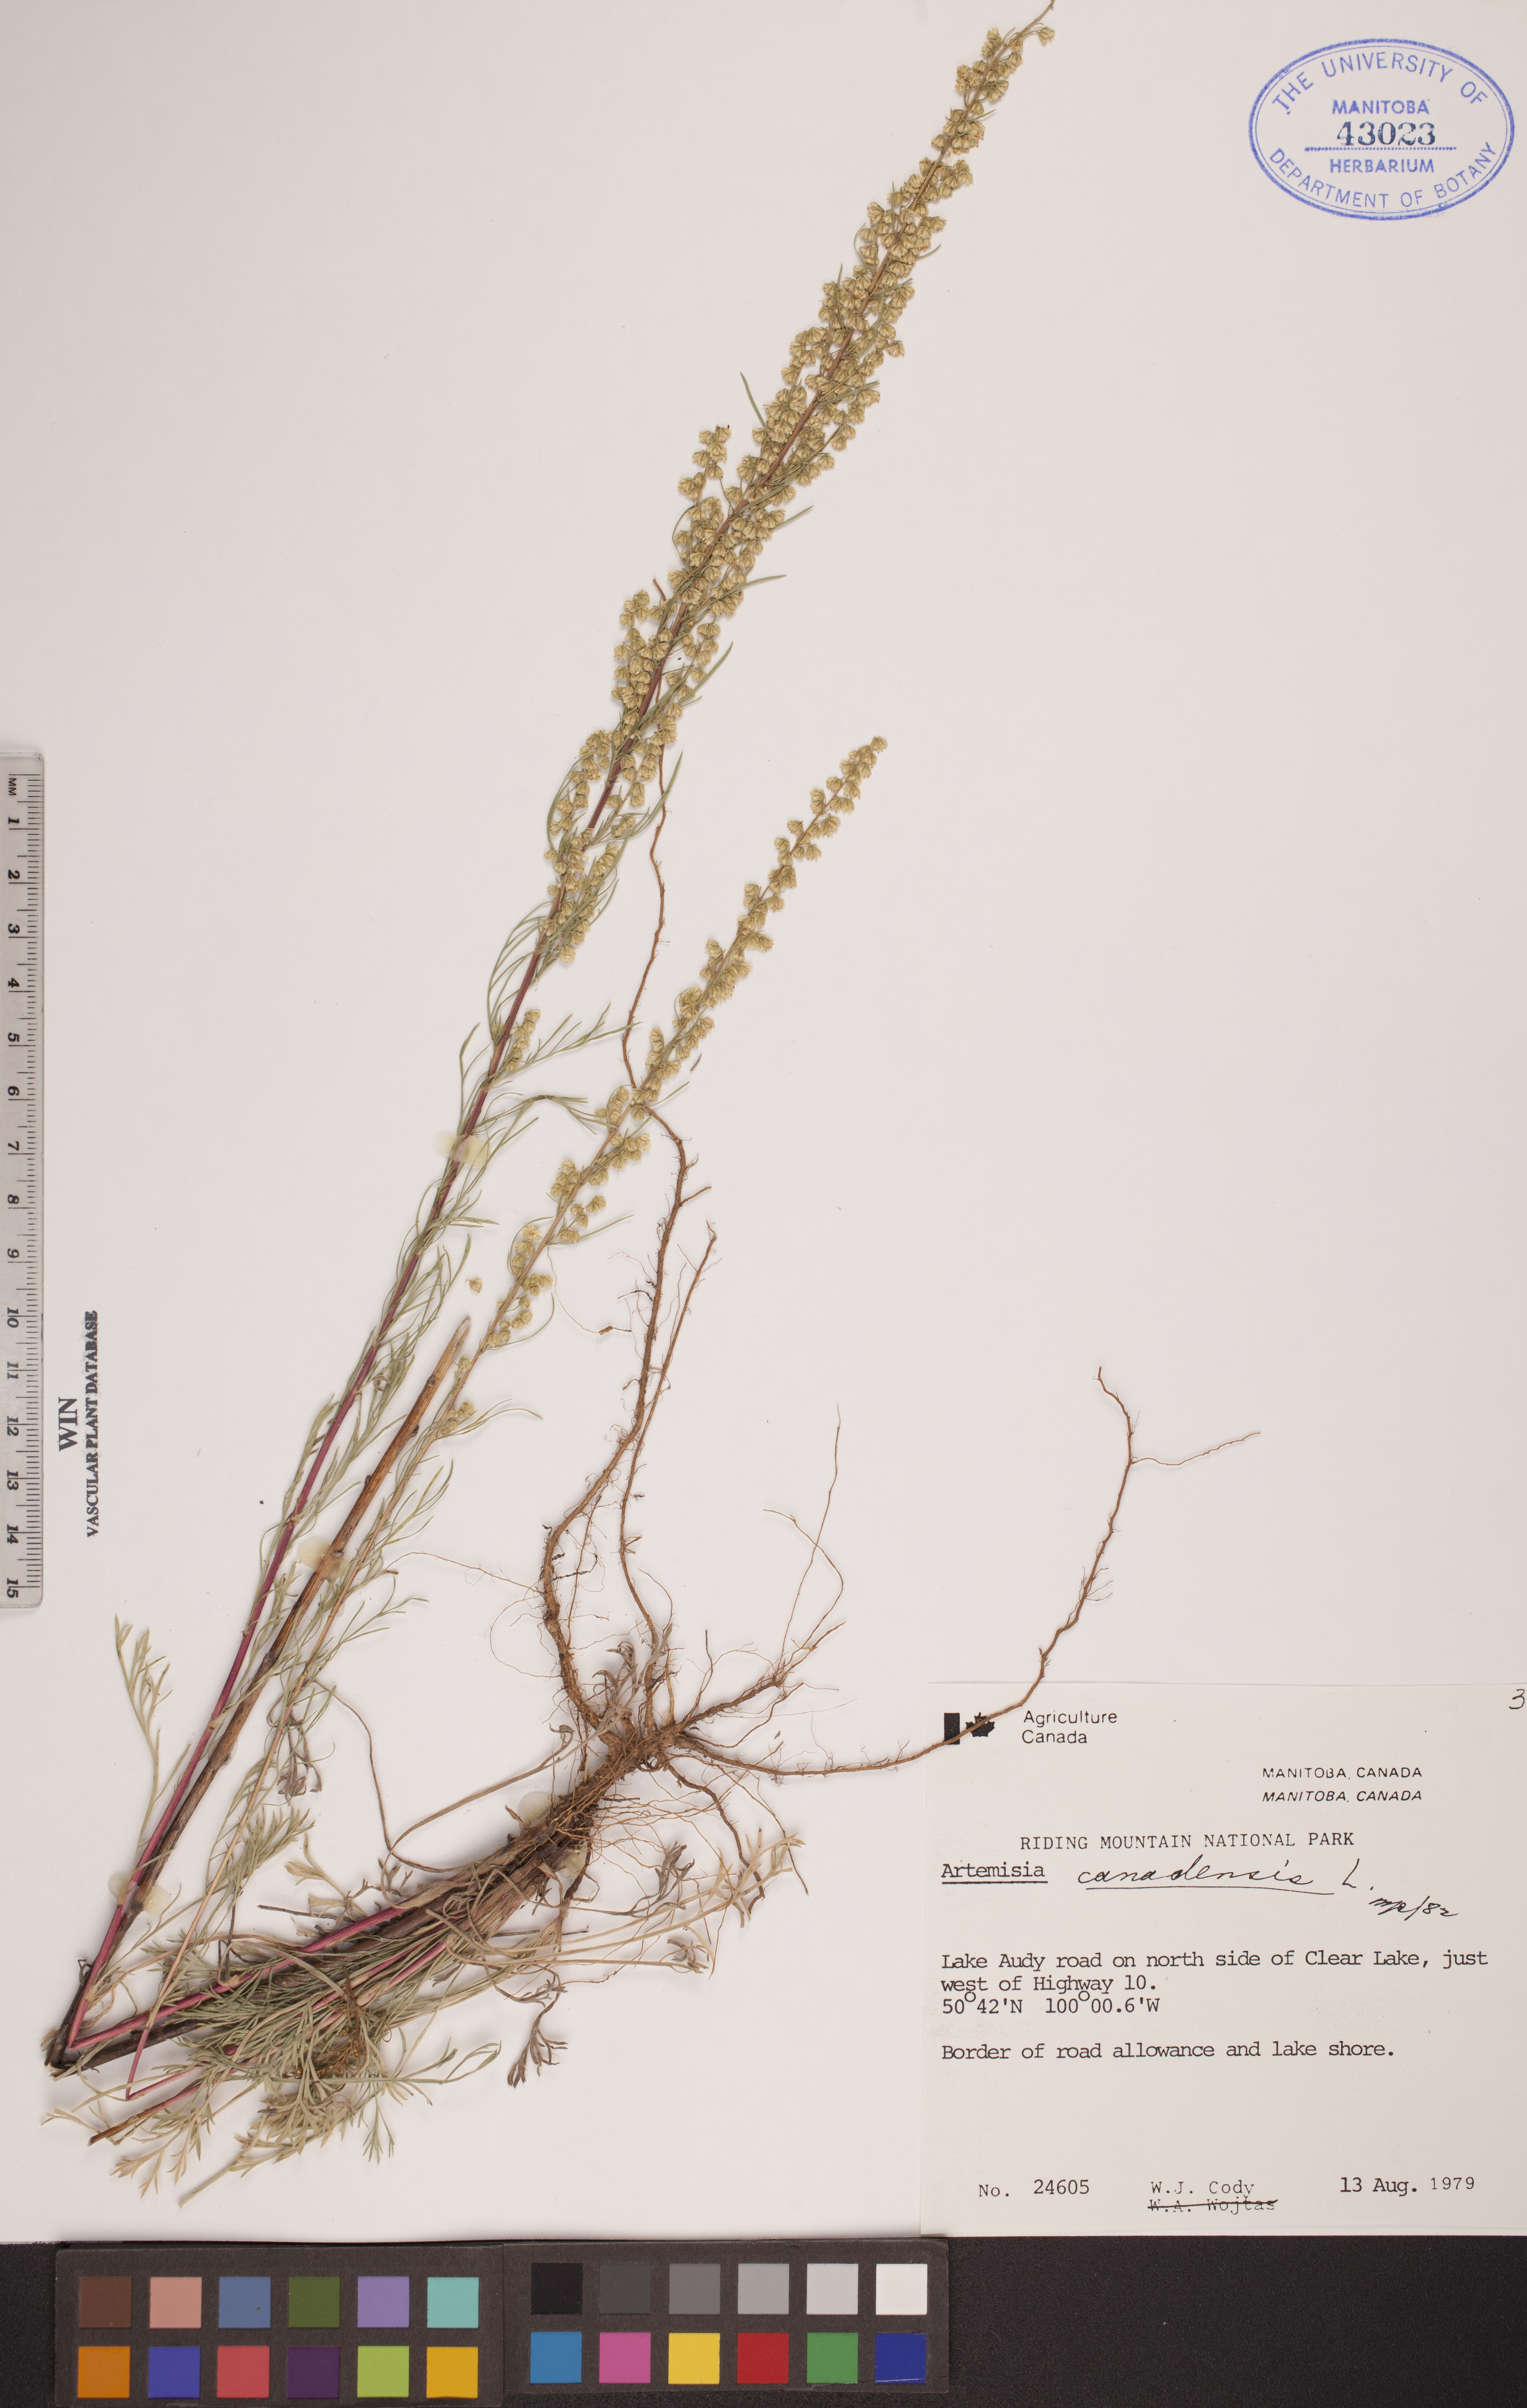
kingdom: Plantae
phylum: Tracheophyta
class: Magnoliopsida
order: Asterales
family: Asteraceae
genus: Artemisia
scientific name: Artemisia campestris
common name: Field wormwood
